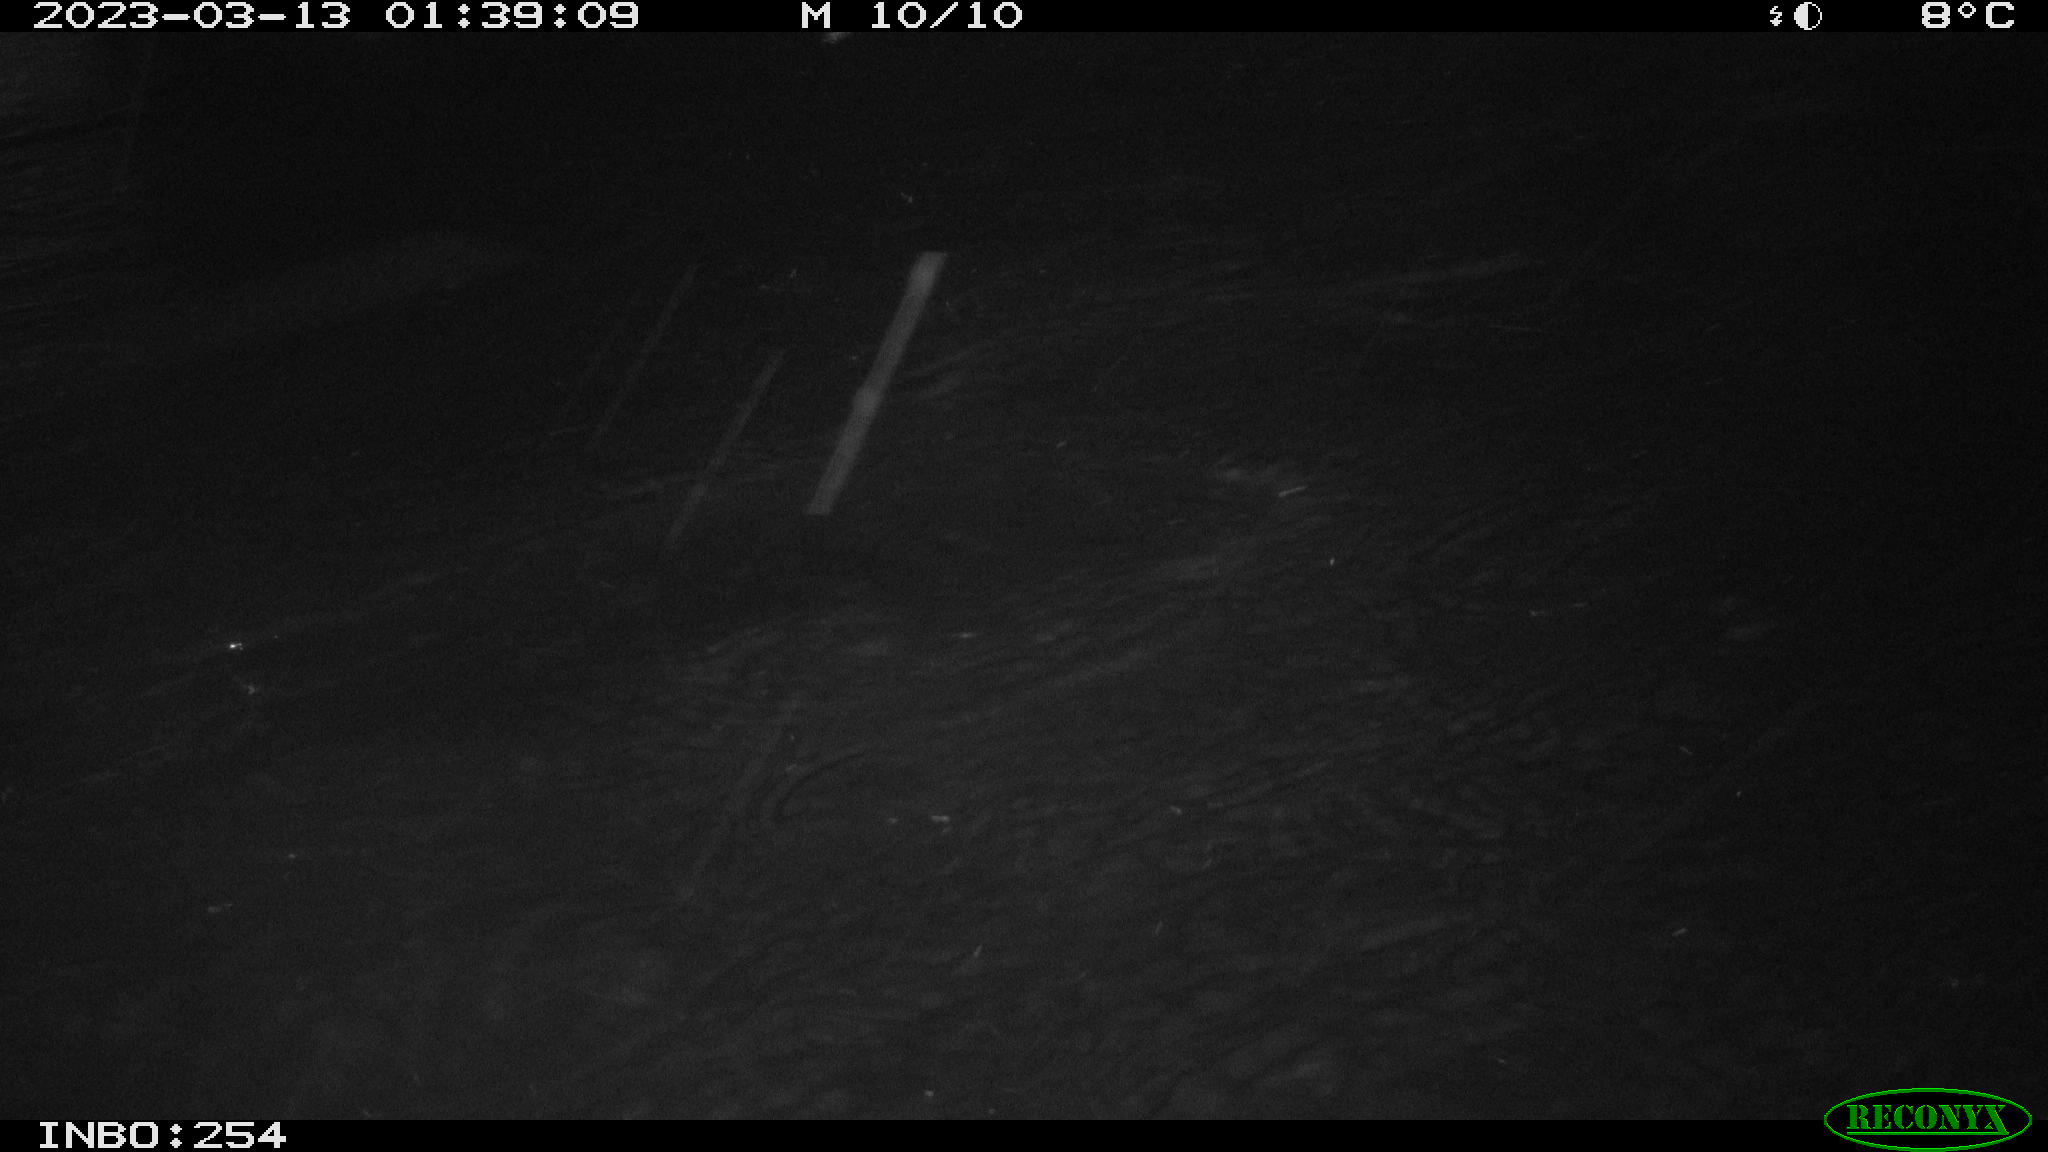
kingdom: Animalia
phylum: Chordata
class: Mammalia
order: Rodentia
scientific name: Rodentia
